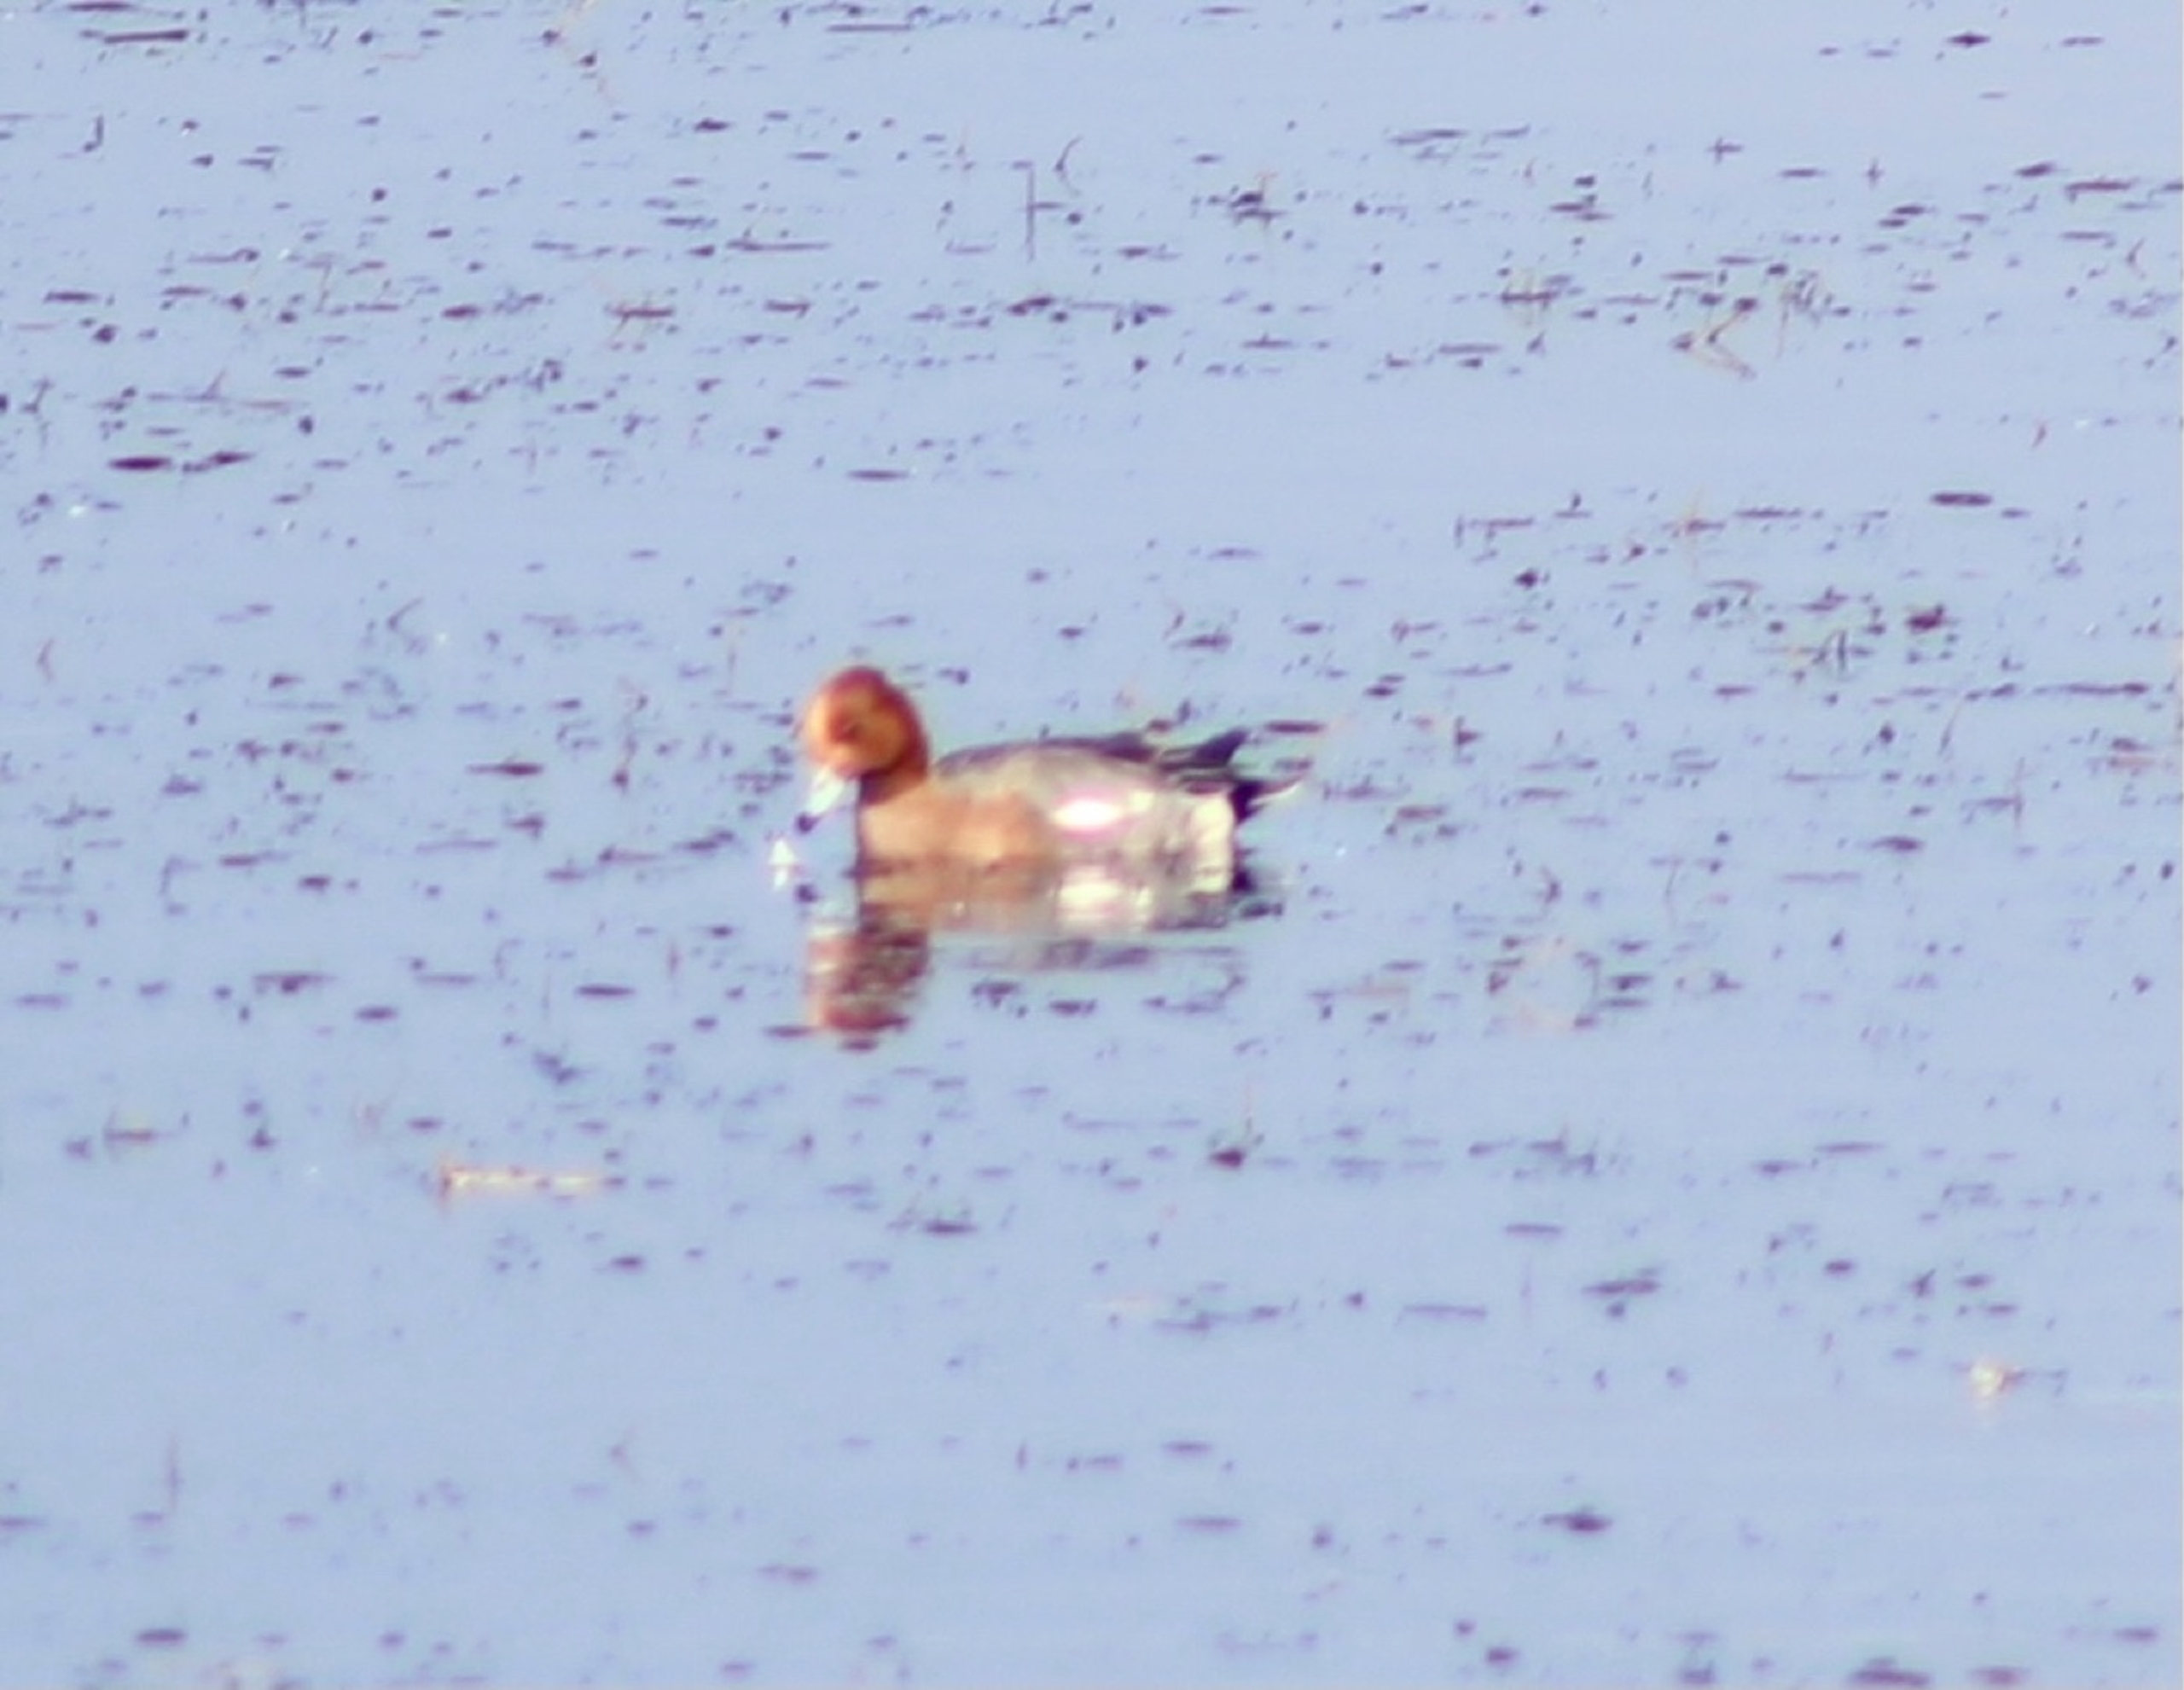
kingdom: Animalia
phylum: Chordata
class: Aves
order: Anseriformes
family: Anatidae
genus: Mareca
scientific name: Mareca penelope
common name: Pibeand
